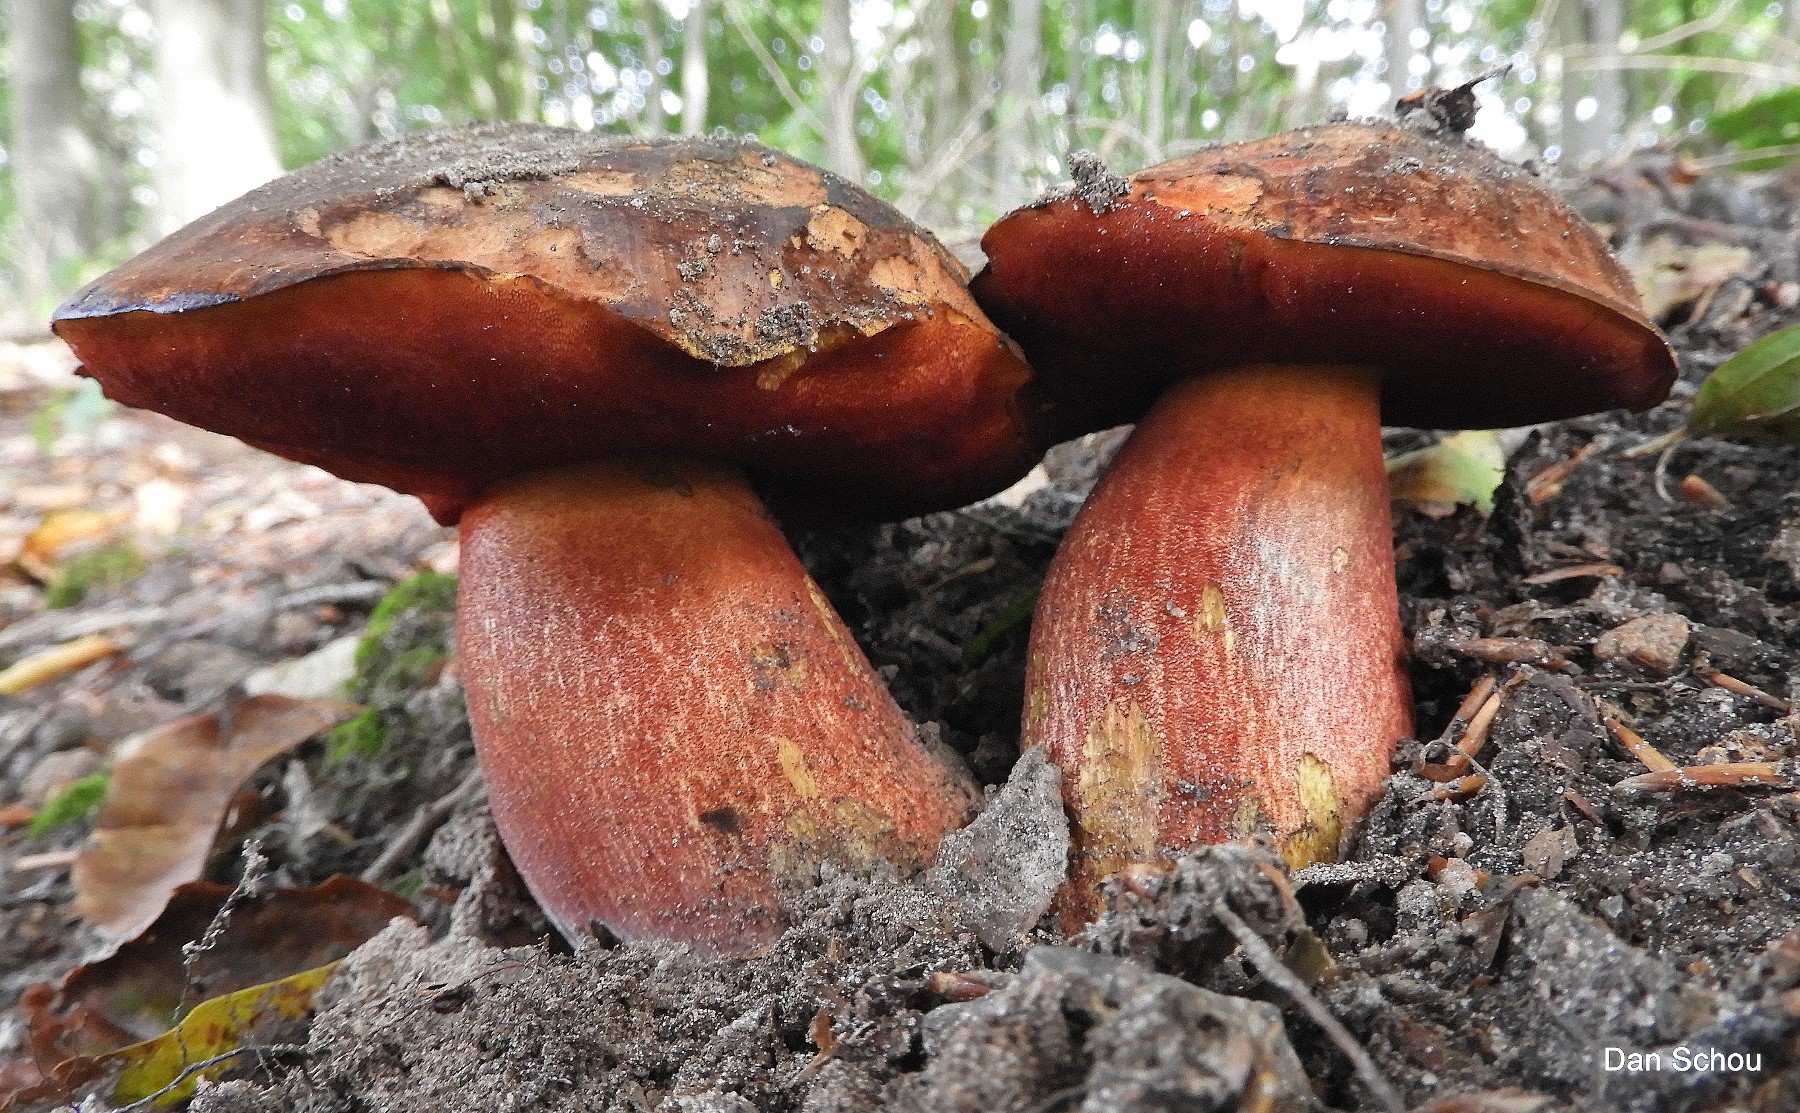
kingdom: Fungi
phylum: Basidiomycota
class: Agaricomycetes
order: Boletales
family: Boletaceae
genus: Neoboletus
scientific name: Neoboletus erythropus
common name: punktstokket indigorørhat
